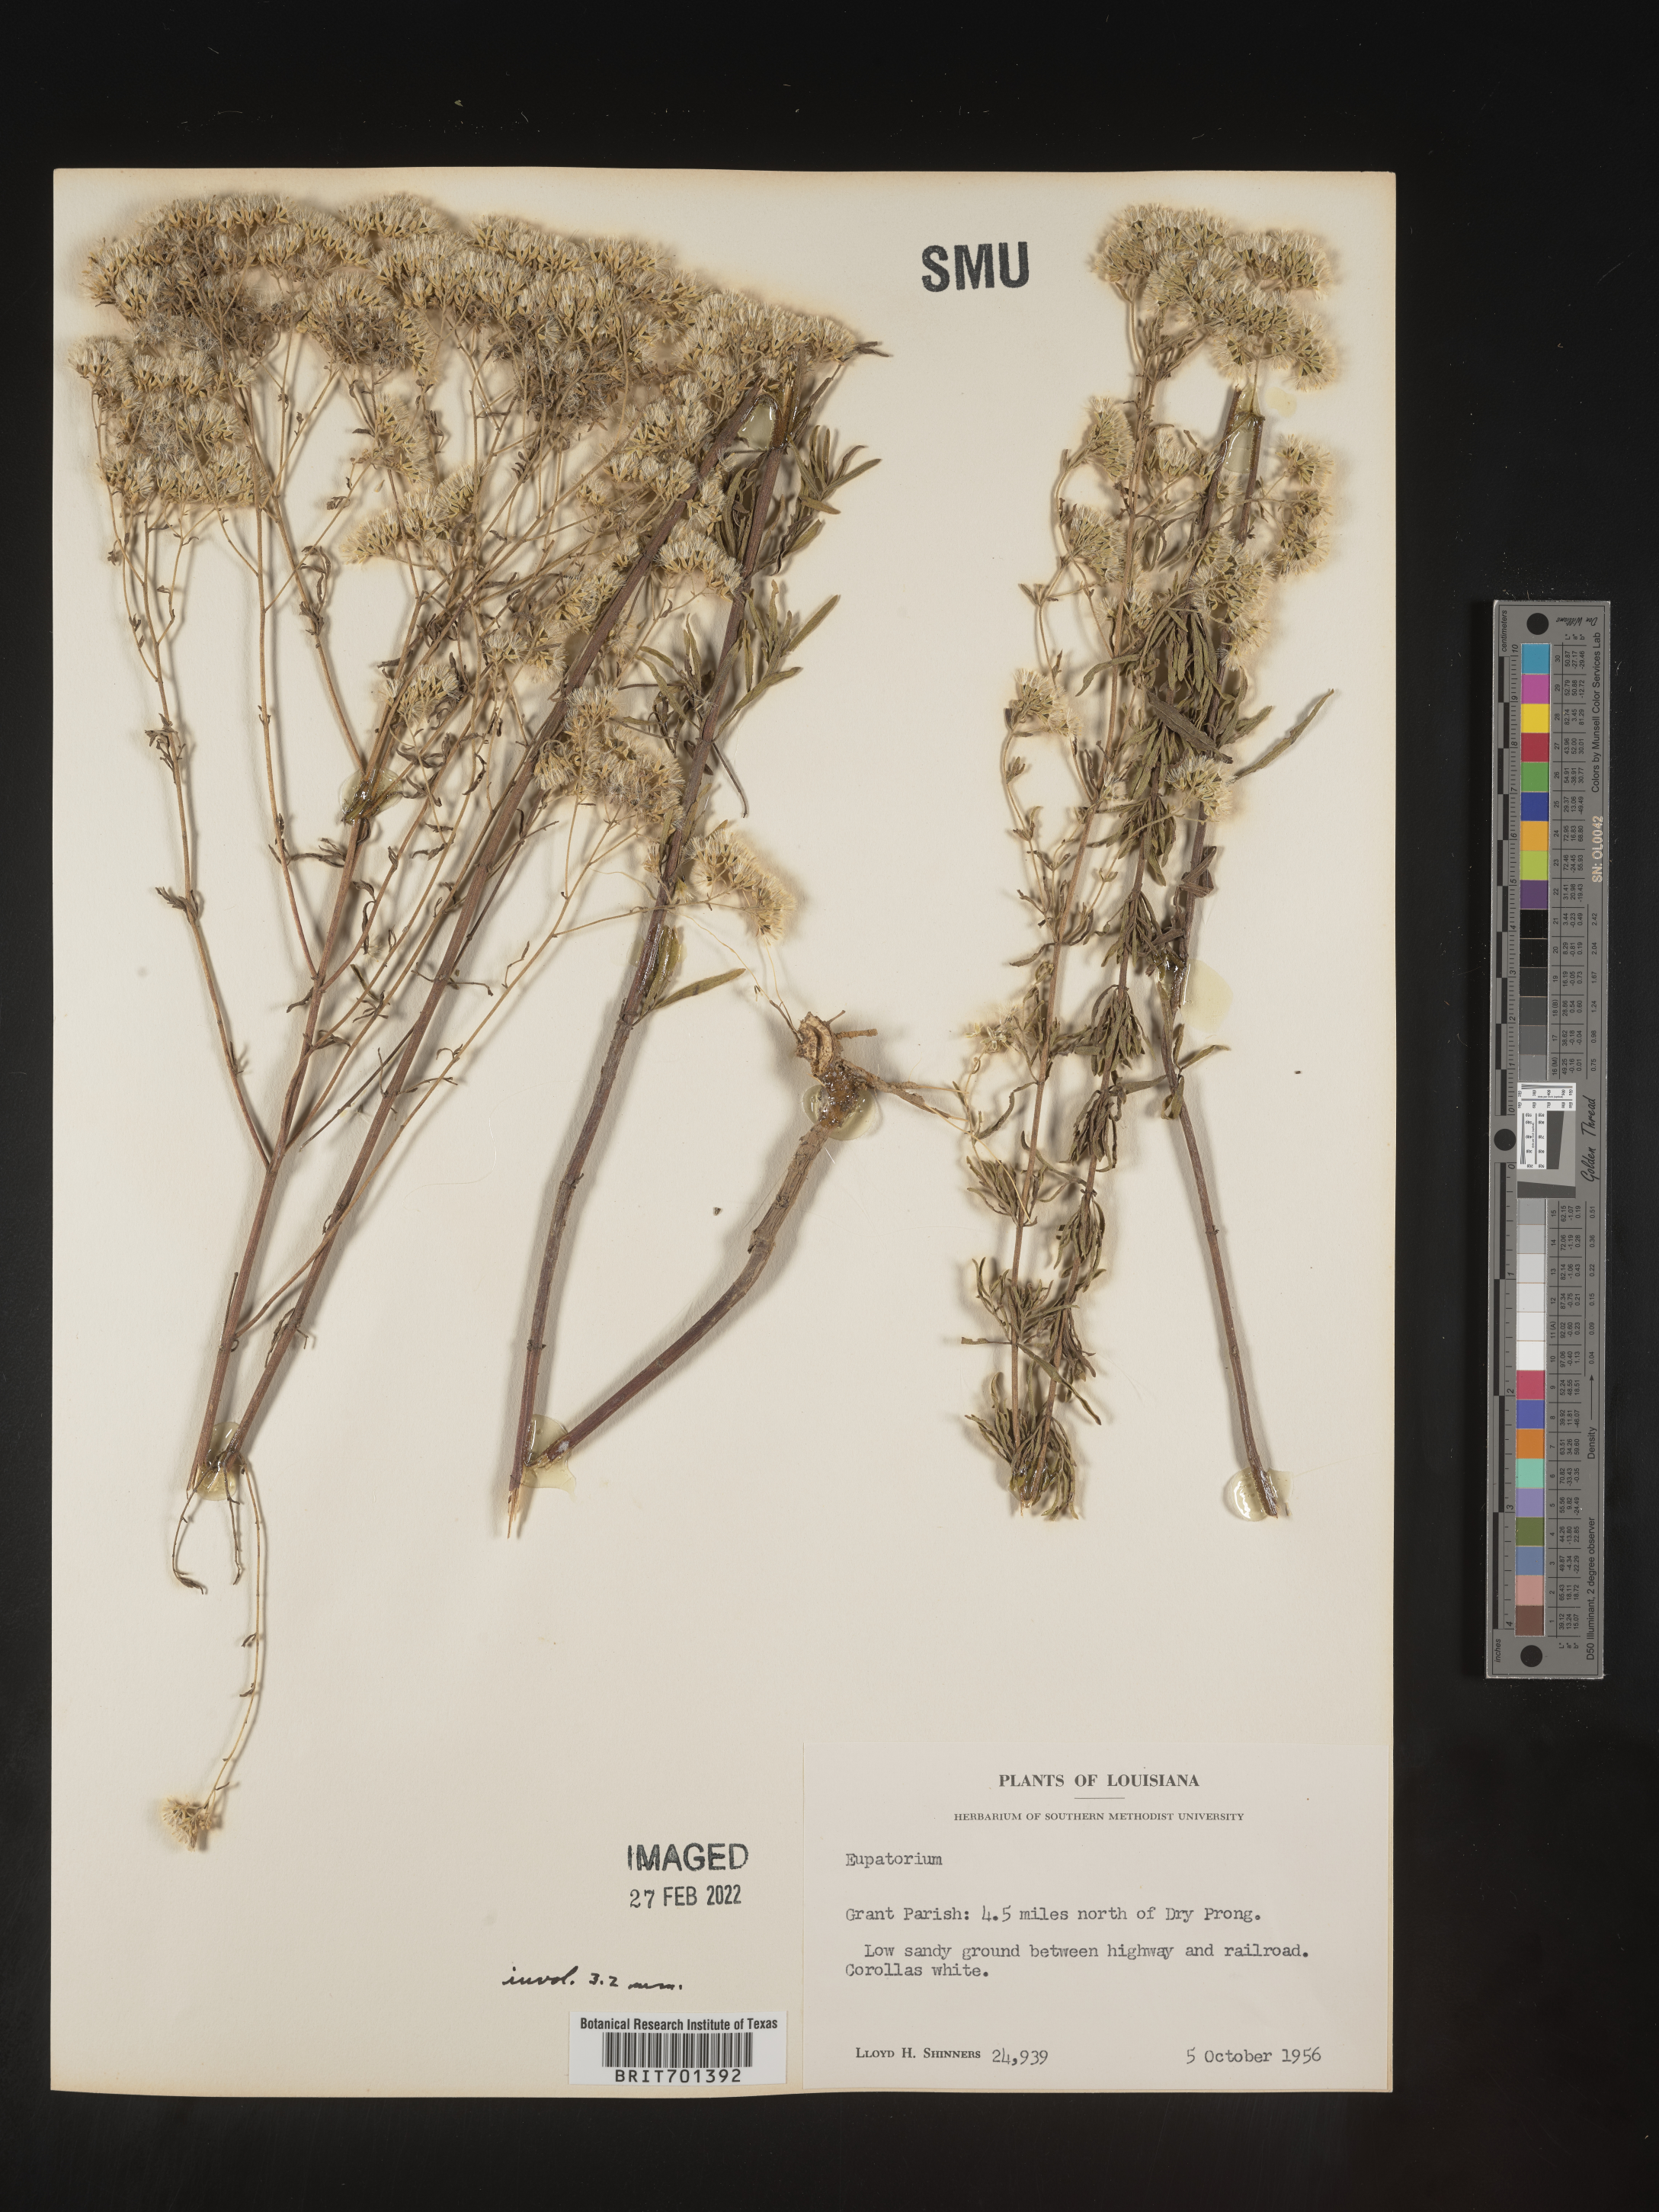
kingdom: Plantae
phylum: Tracheophyta
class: Magnoliopsida
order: Asterales
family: Asteraceae
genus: Eupatorium
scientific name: Eupatorium hyssopifolium
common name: Hyssop-leaf thoroughwort
